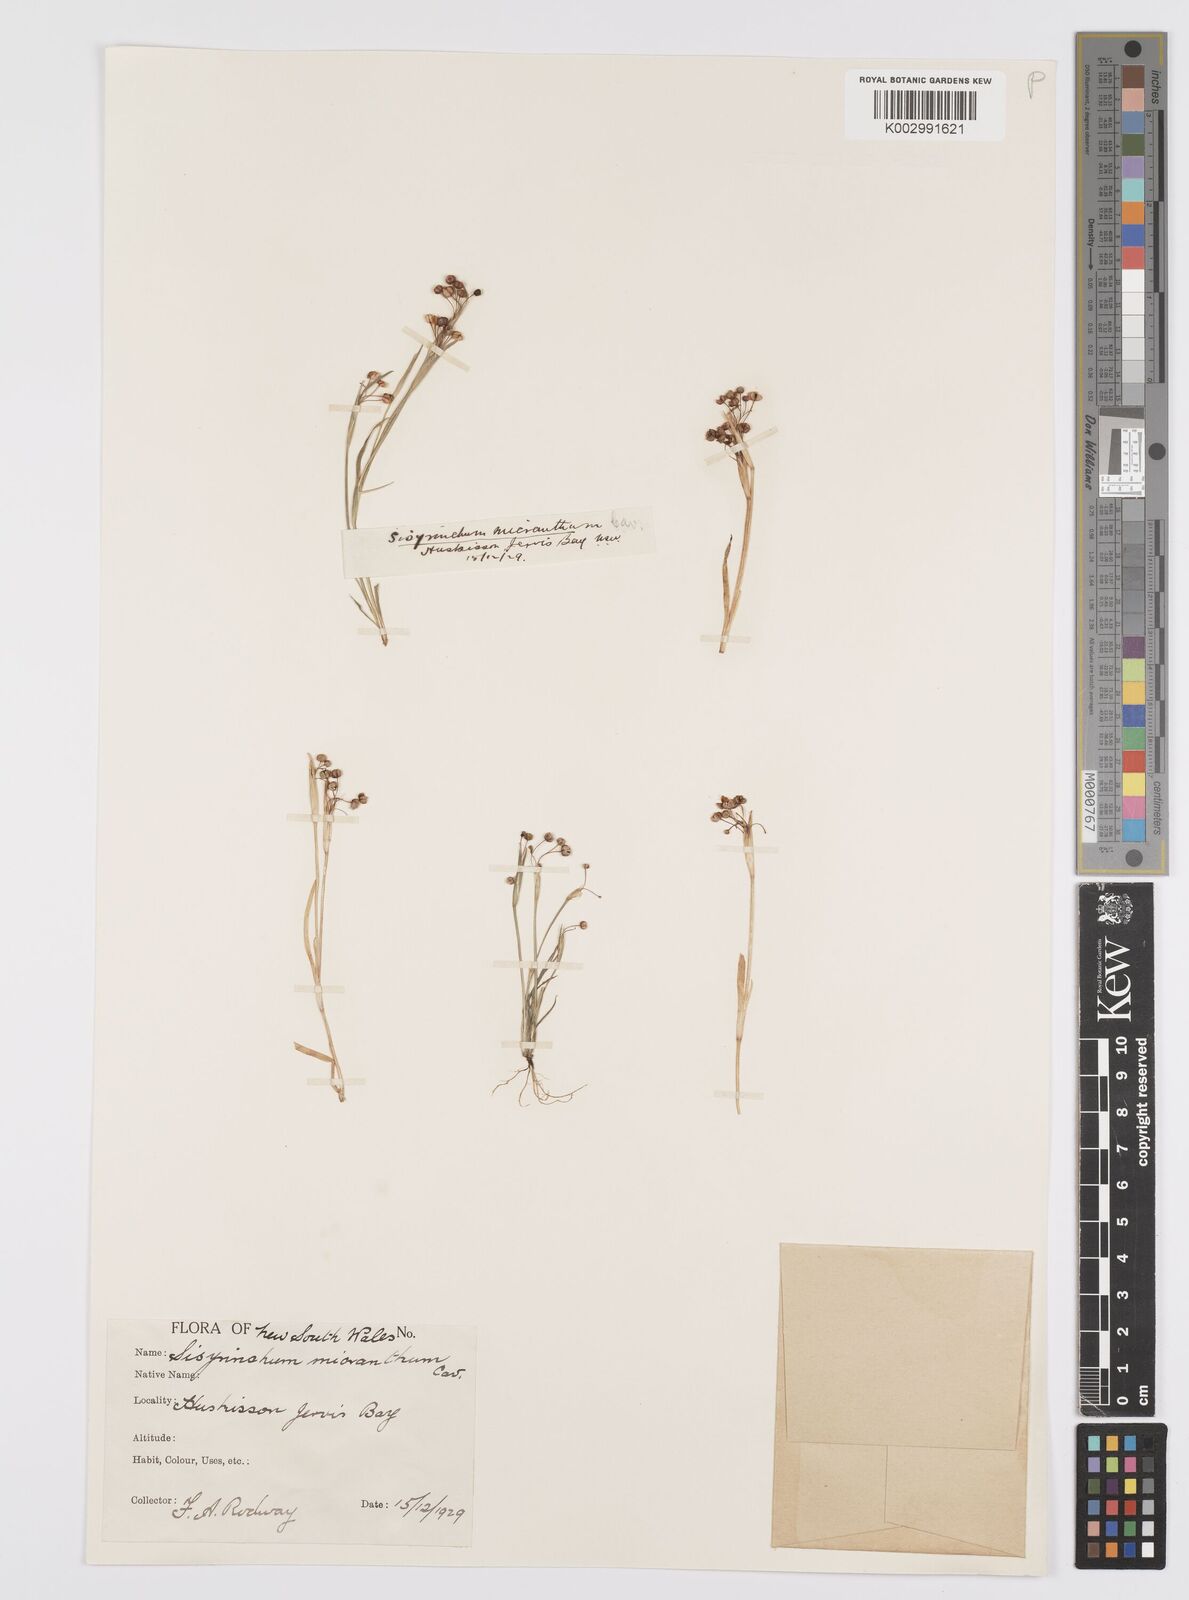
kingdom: Plantae
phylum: Tracheophyta
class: Liliopsida
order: Asparagales
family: Iridaceae
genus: Sisyrinchium
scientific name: Sisyrinchium micranthum
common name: Bermuda pigroot
